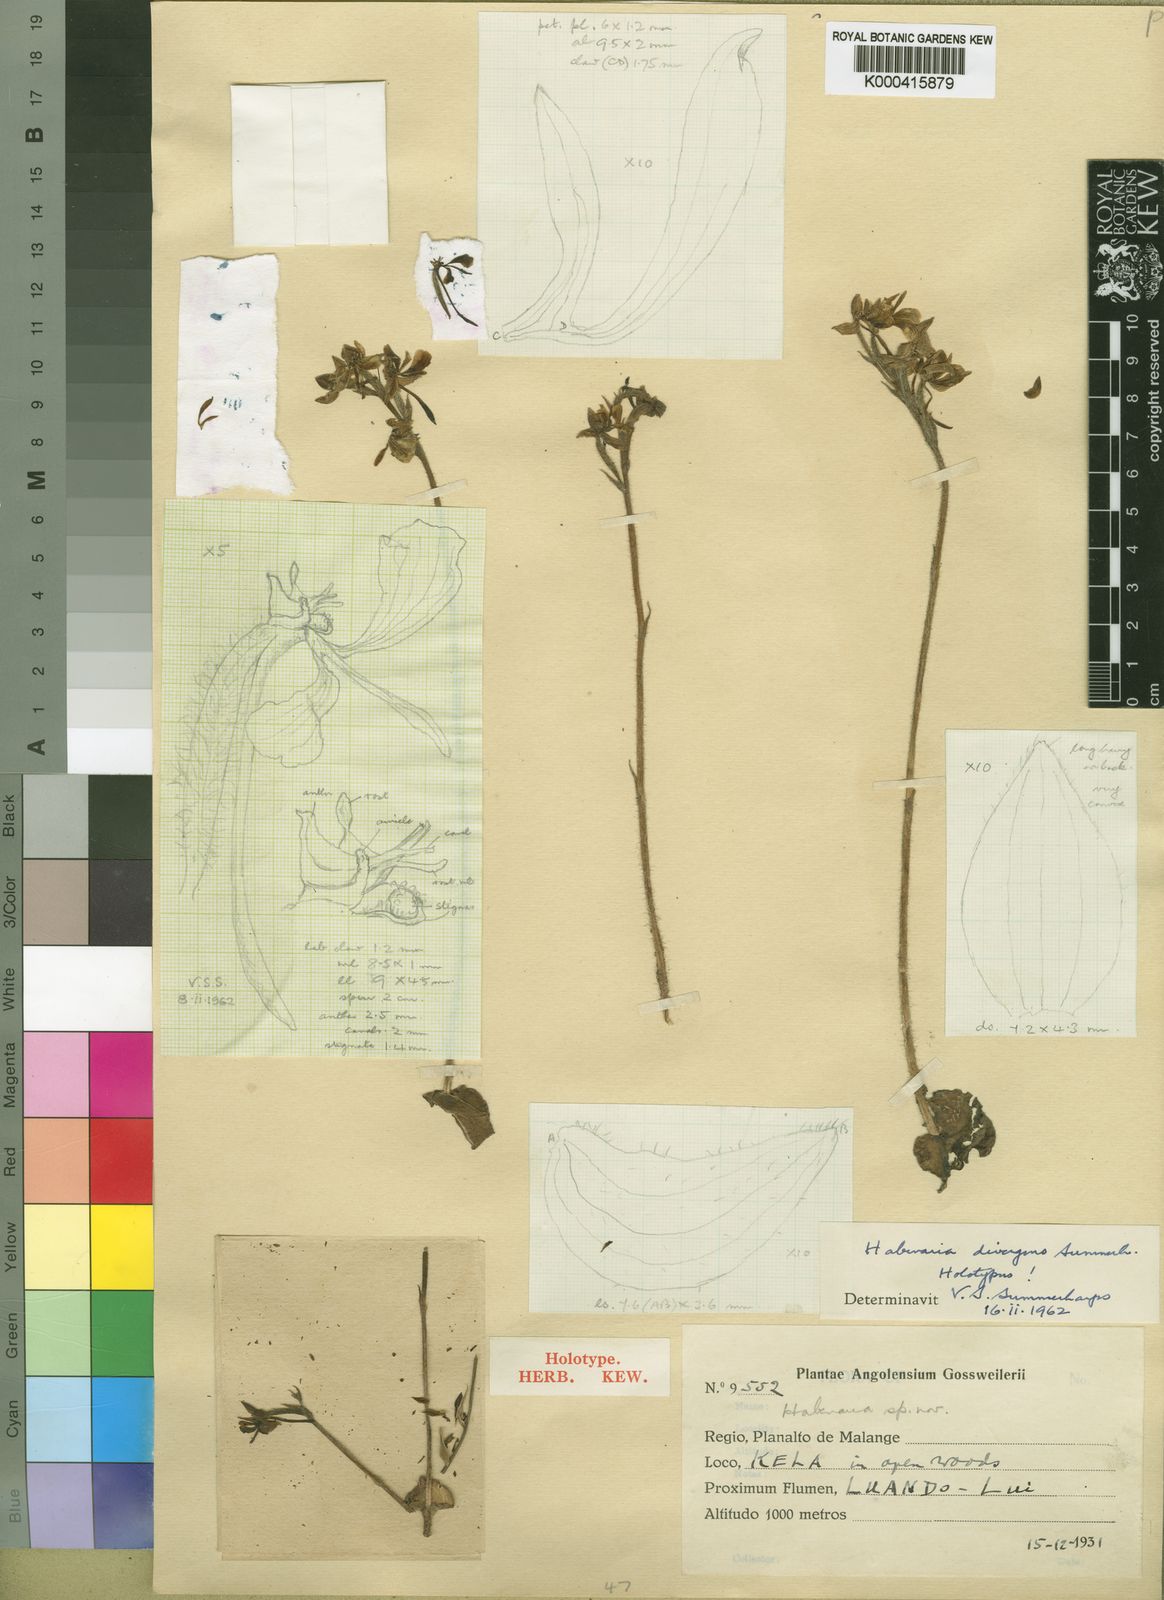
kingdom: Plantae
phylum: Tracheophyta
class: Liliopsida
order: Asparagales
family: Orchidaceae
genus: Habenaria
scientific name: Habenaria divergens
